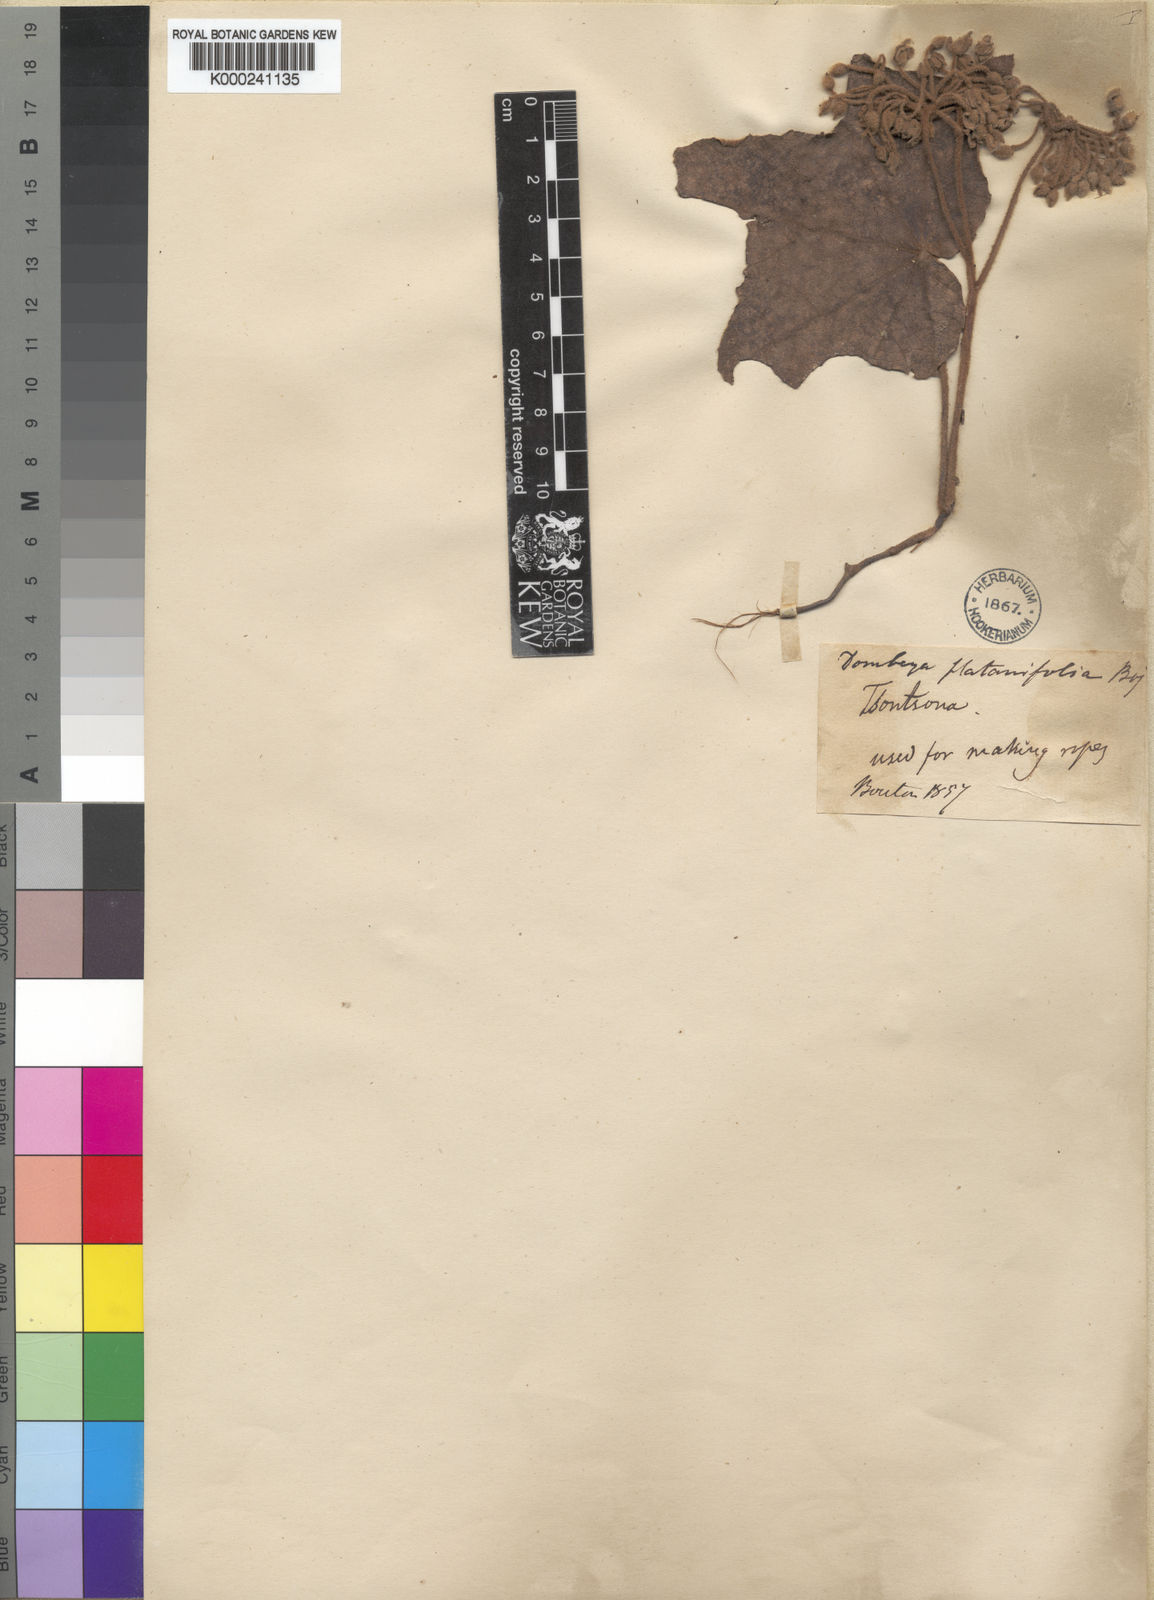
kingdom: Plantae
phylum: Tracheophyta
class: Magnoliopsida
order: Malvales
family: Malvaceae
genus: Dombeya
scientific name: Dombeya platanifolia
